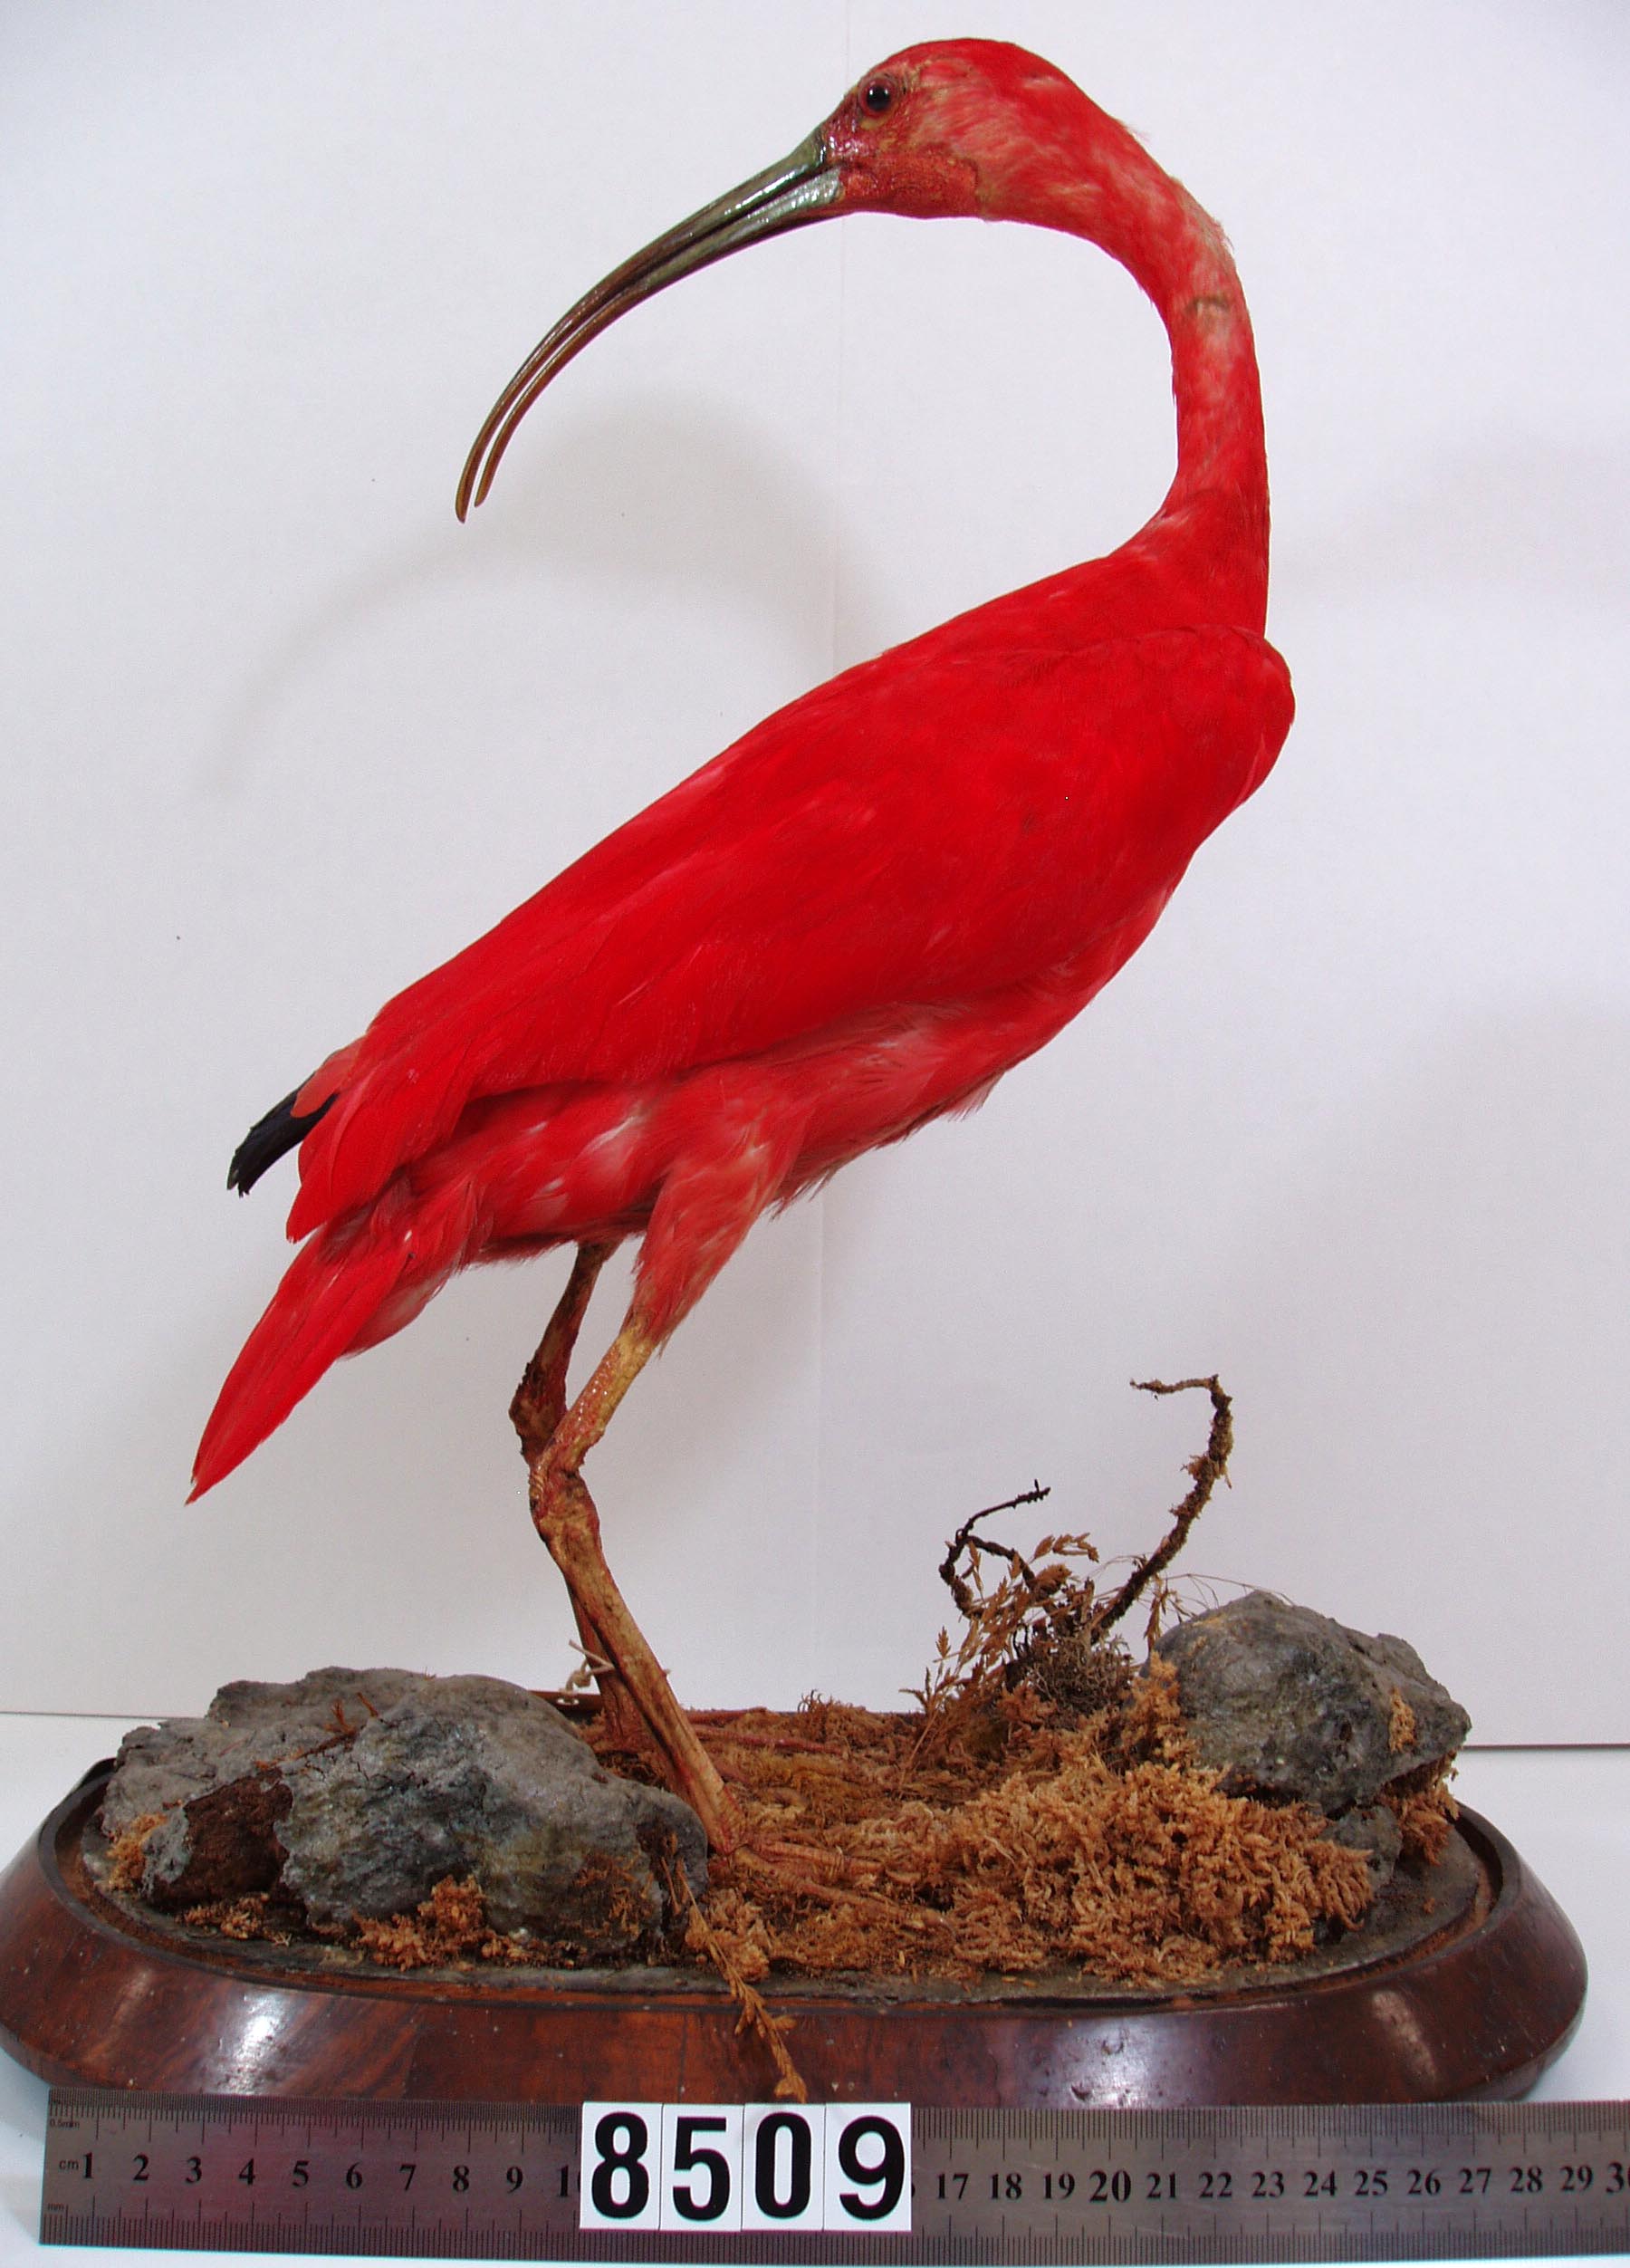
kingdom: Animalia
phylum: Chordata
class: Aves
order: Pelecaniformes
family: Threskiornithidae
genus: Eudocimus
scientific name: Eudocimus ruber
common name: Scarlet ibis
